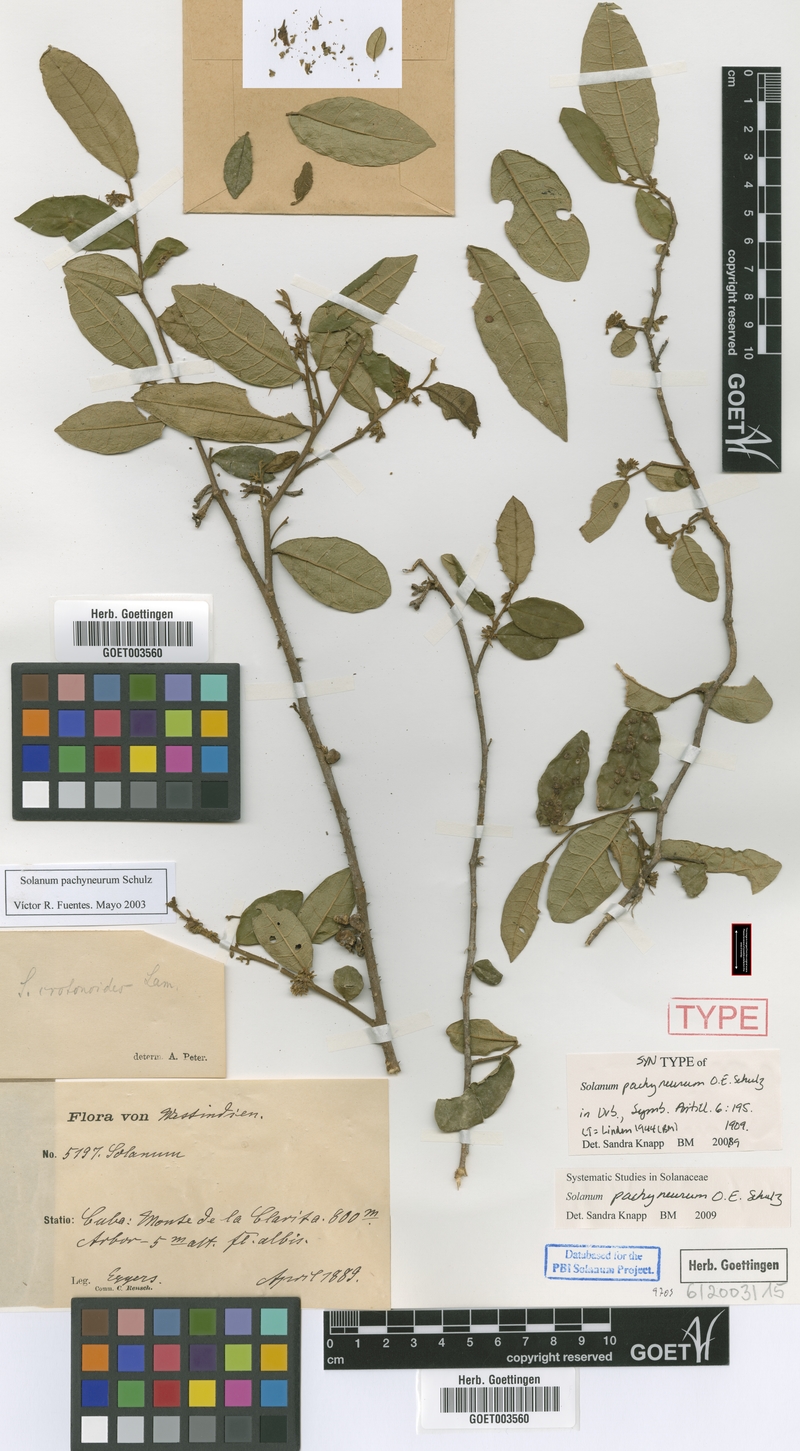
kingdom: Plantae
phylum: Tracheophyta
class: Magnoliopsida
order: Solanales
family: Solanaceae
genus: Solanum
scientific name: Solanum pachyneurum
